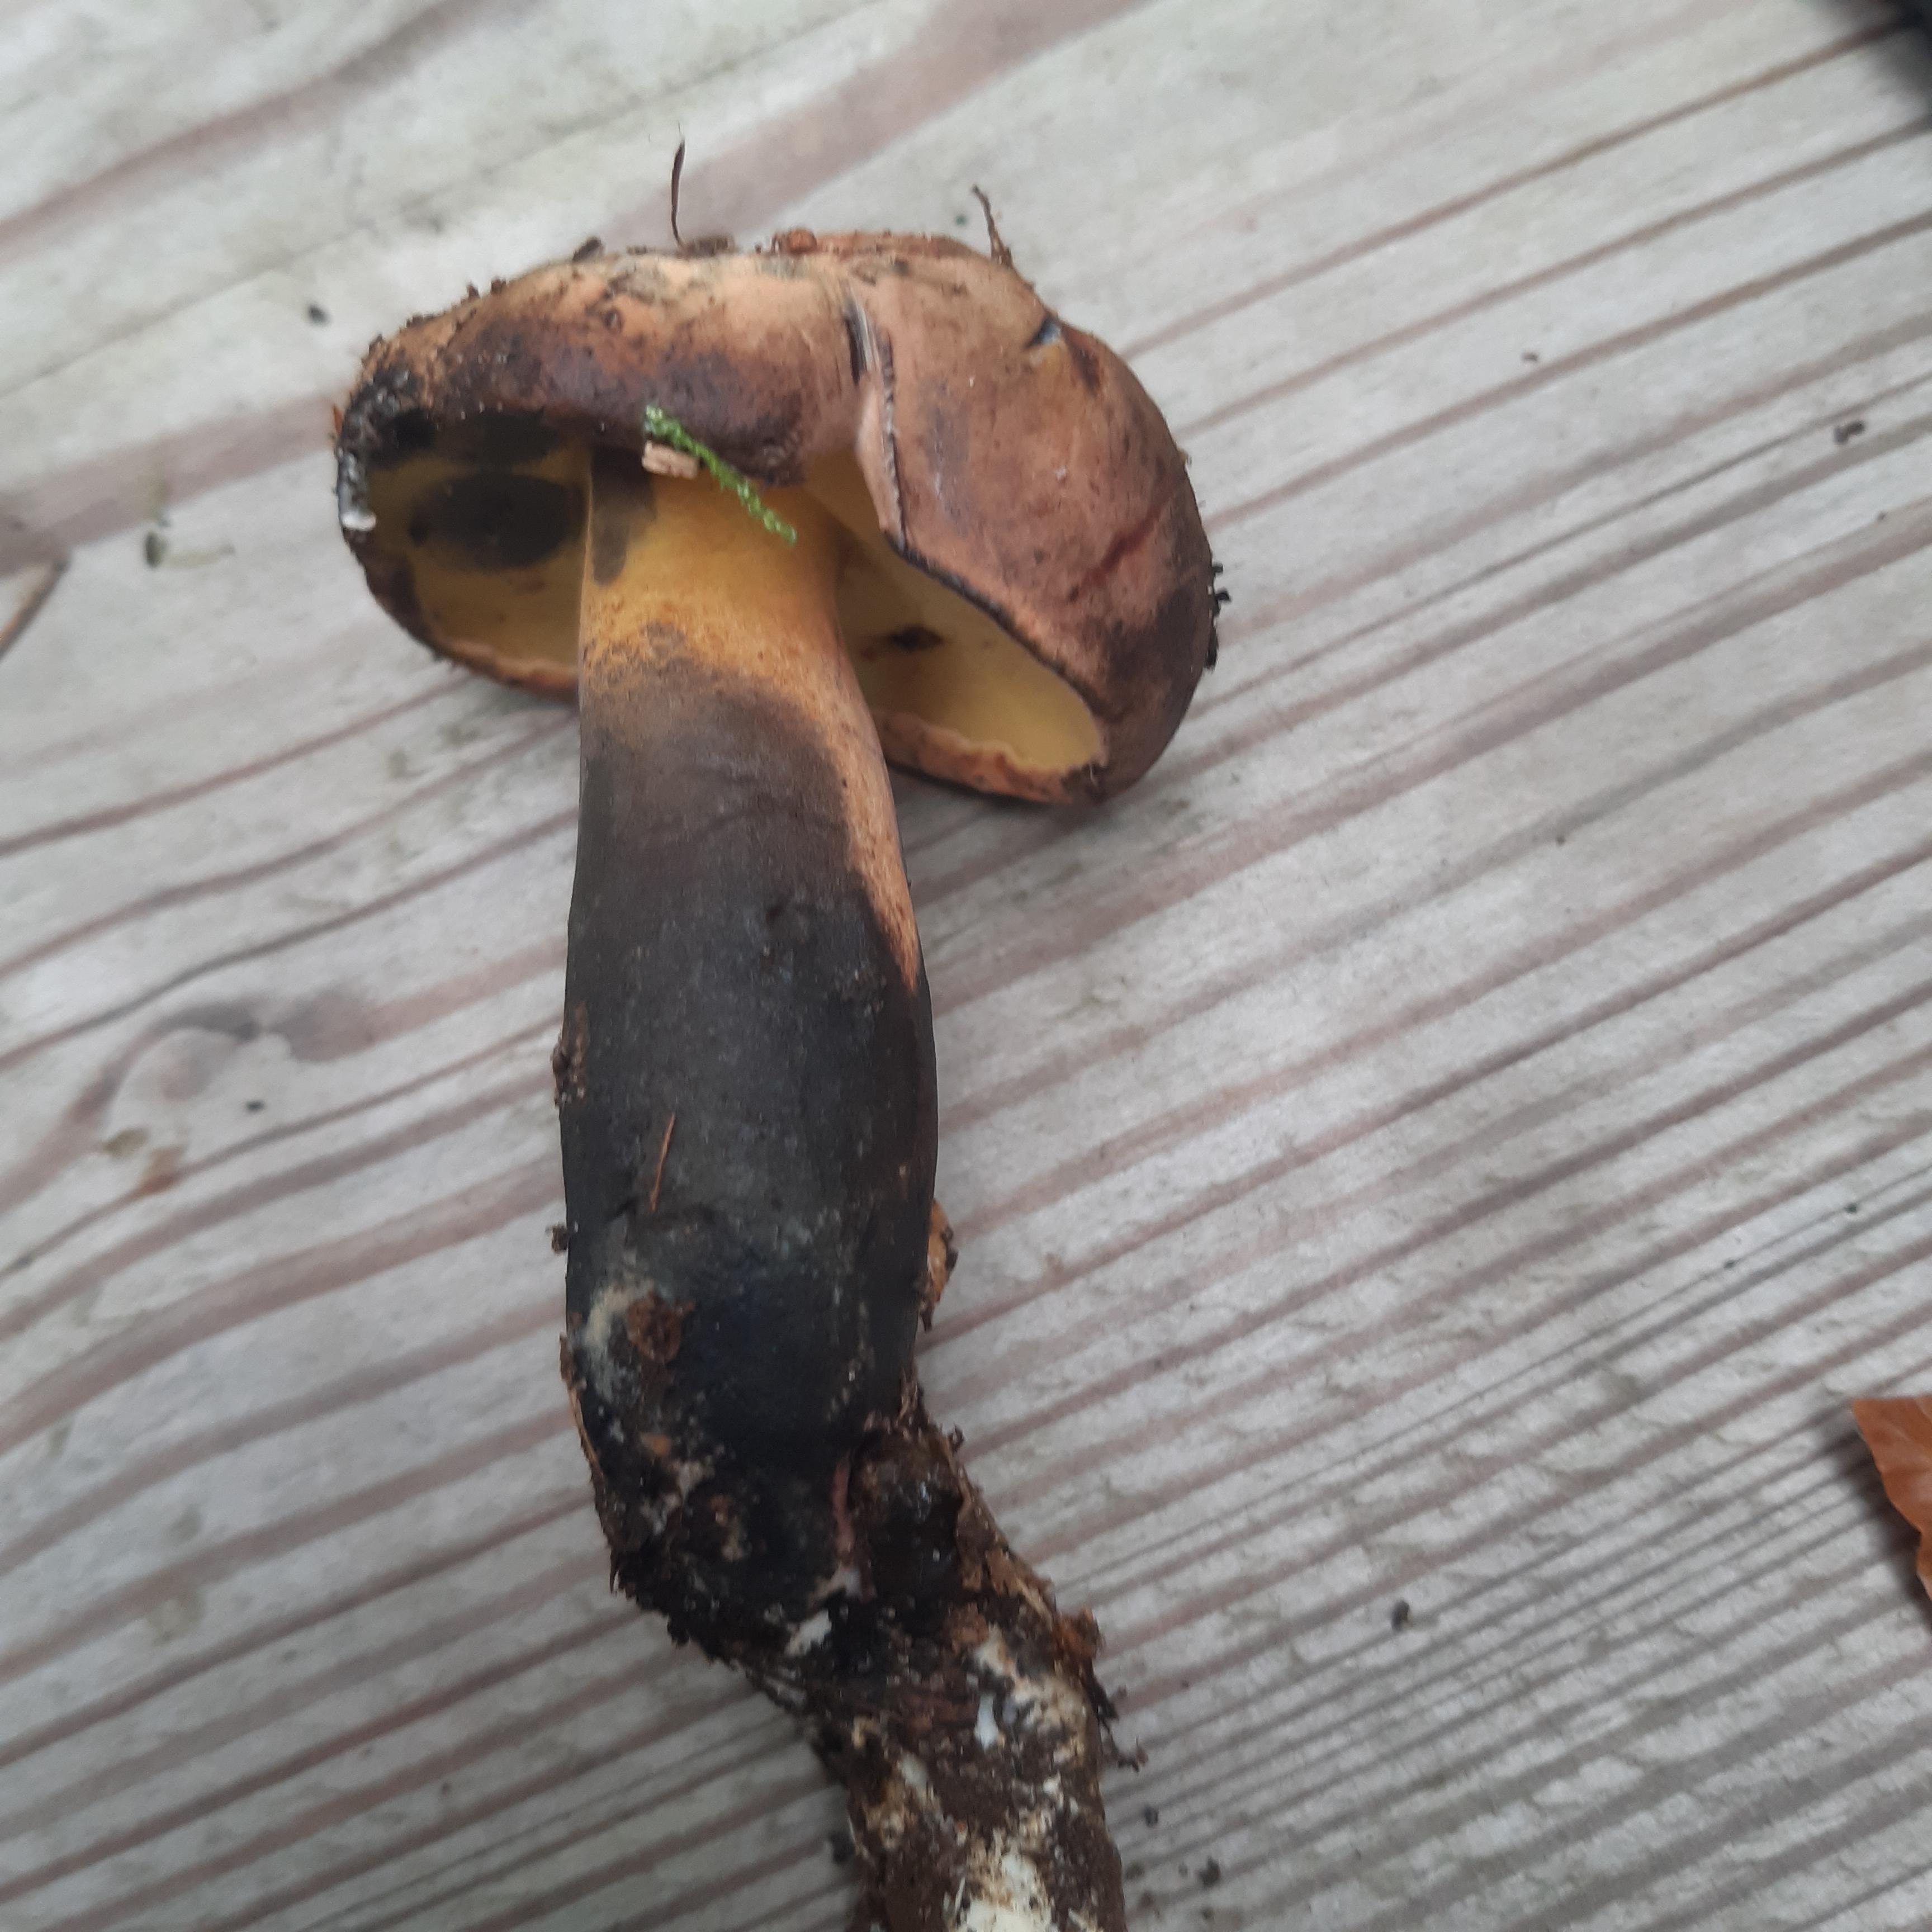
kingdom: Fungi
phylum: Basidiomycota
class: Agaricomycetes
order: Boletales
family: Boletaceae
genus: Cyanoboletus
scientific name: Cyanoboletus pulverulentus
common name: sortblånende rørhat
